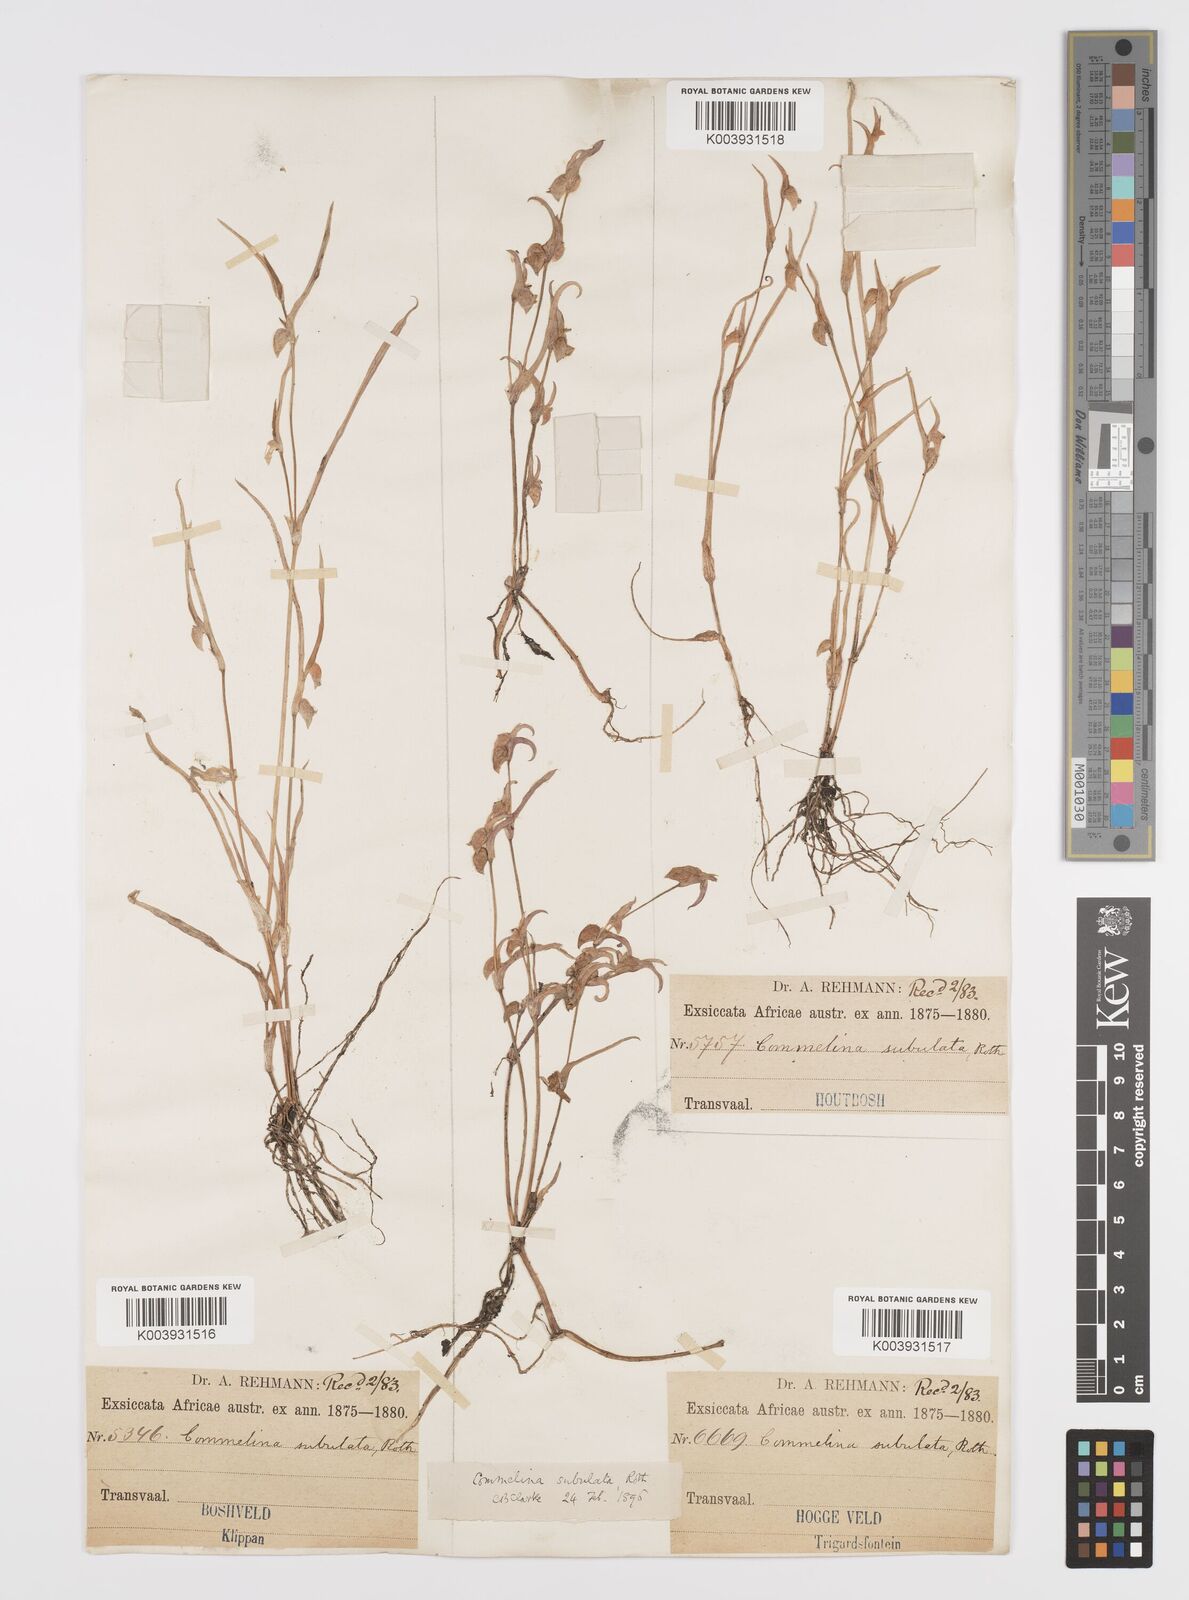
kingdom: Plantae
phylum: Tracheophyta
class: Liliopsida
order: Commelinales
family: Commelinaceae
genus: Commelina
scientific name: Commelina subulata
